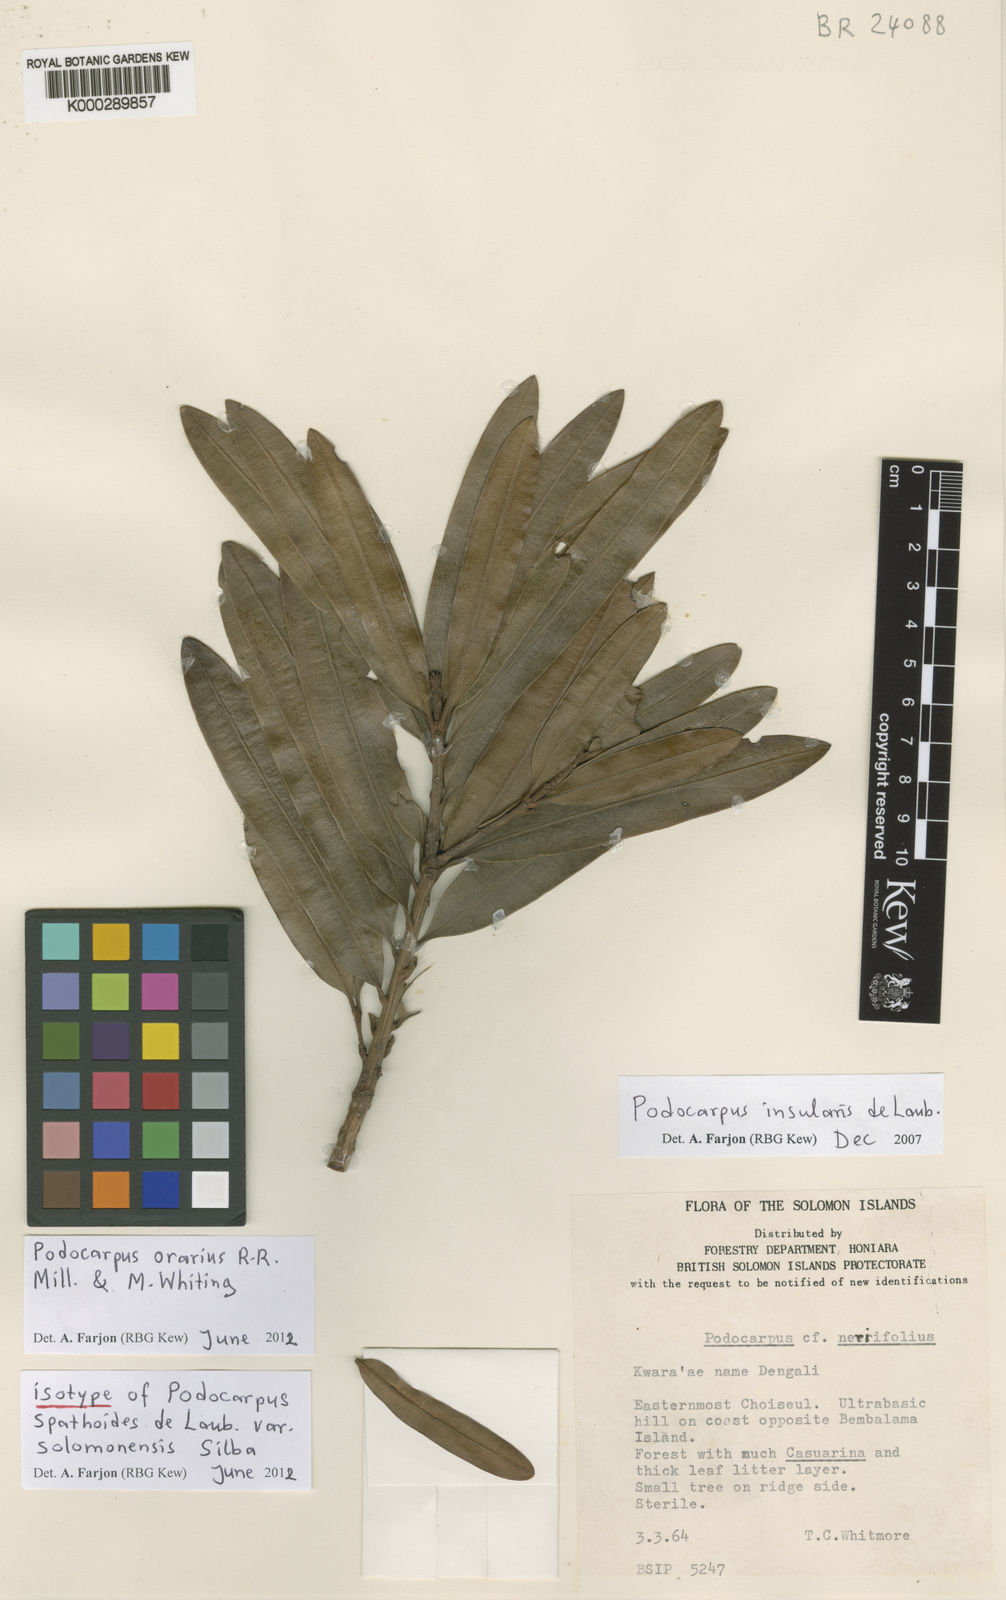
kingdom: Plantae
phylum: Tracheophyta
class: Pinopsida
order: Pinales
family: Podocarpaceae
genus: Podocarpus
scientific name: Podocarpus orarius
